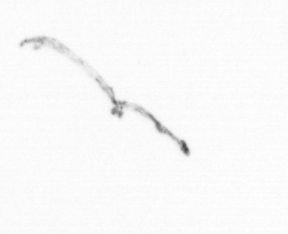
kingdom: Chromista
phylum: Ochrophyta
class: Bacillariophyceae
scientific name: Bacillariophyceae
